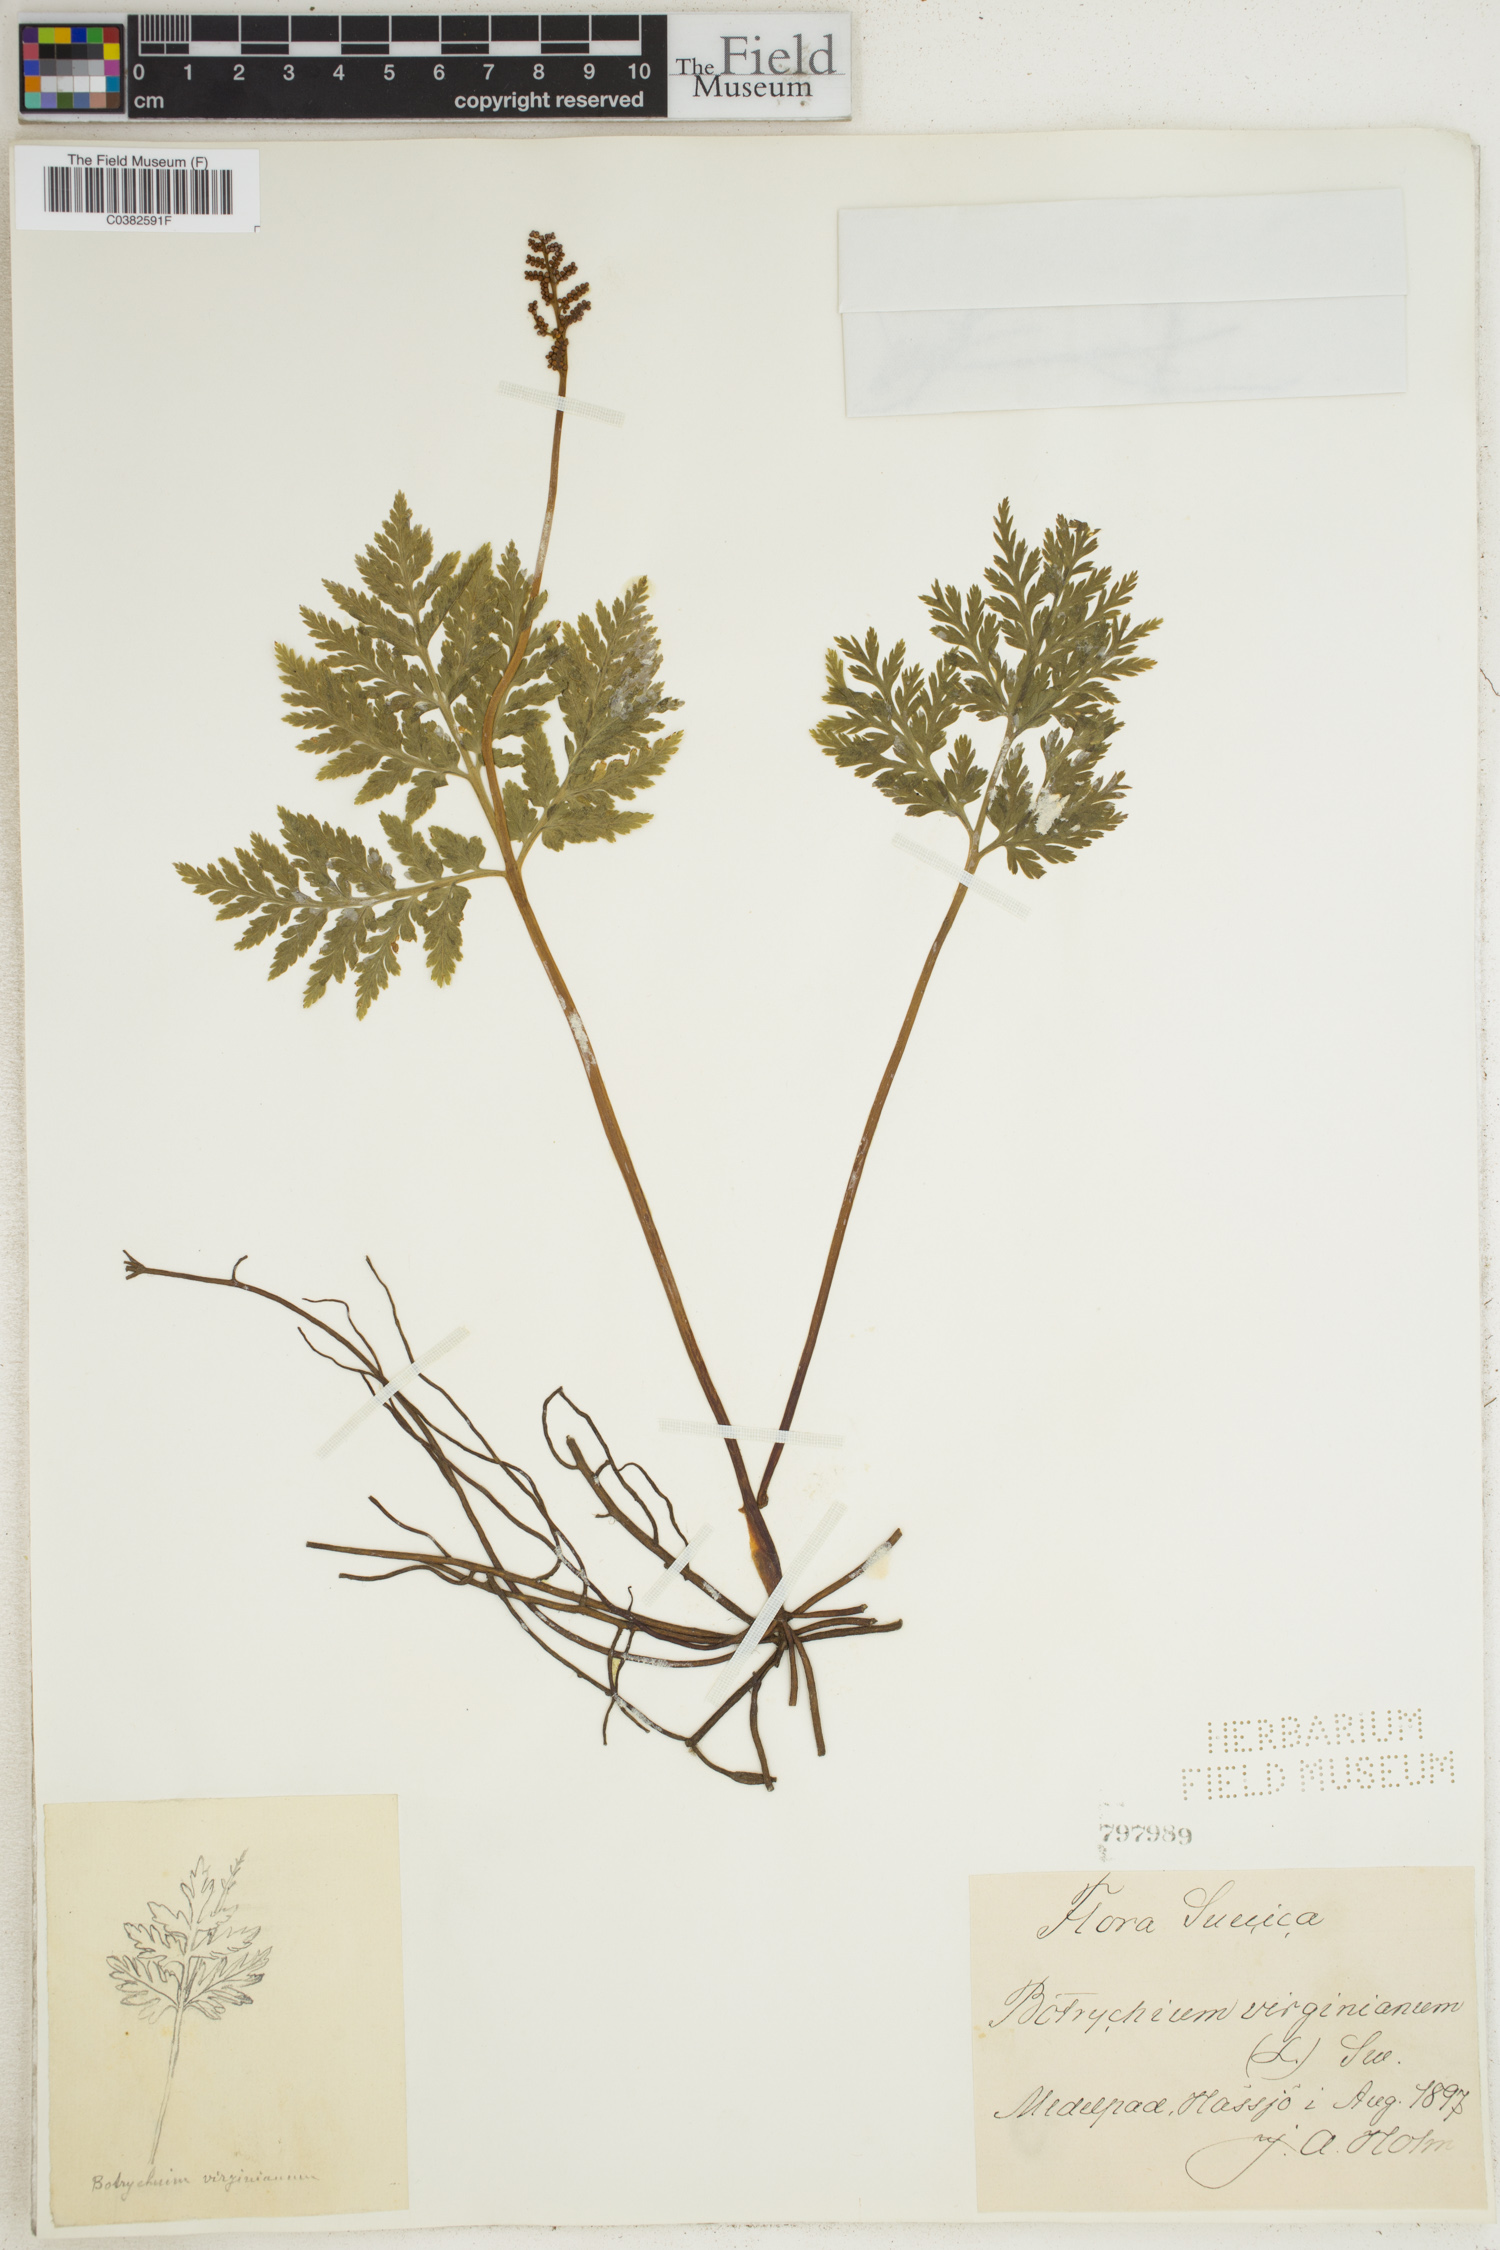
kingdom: Plantae
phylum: Tracheophyta
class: Polypodiopsida
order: Ophioglossales
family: Ophioglossaceae
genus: Botrypus
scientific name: Botrypus virginianus
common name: Common grapefern
